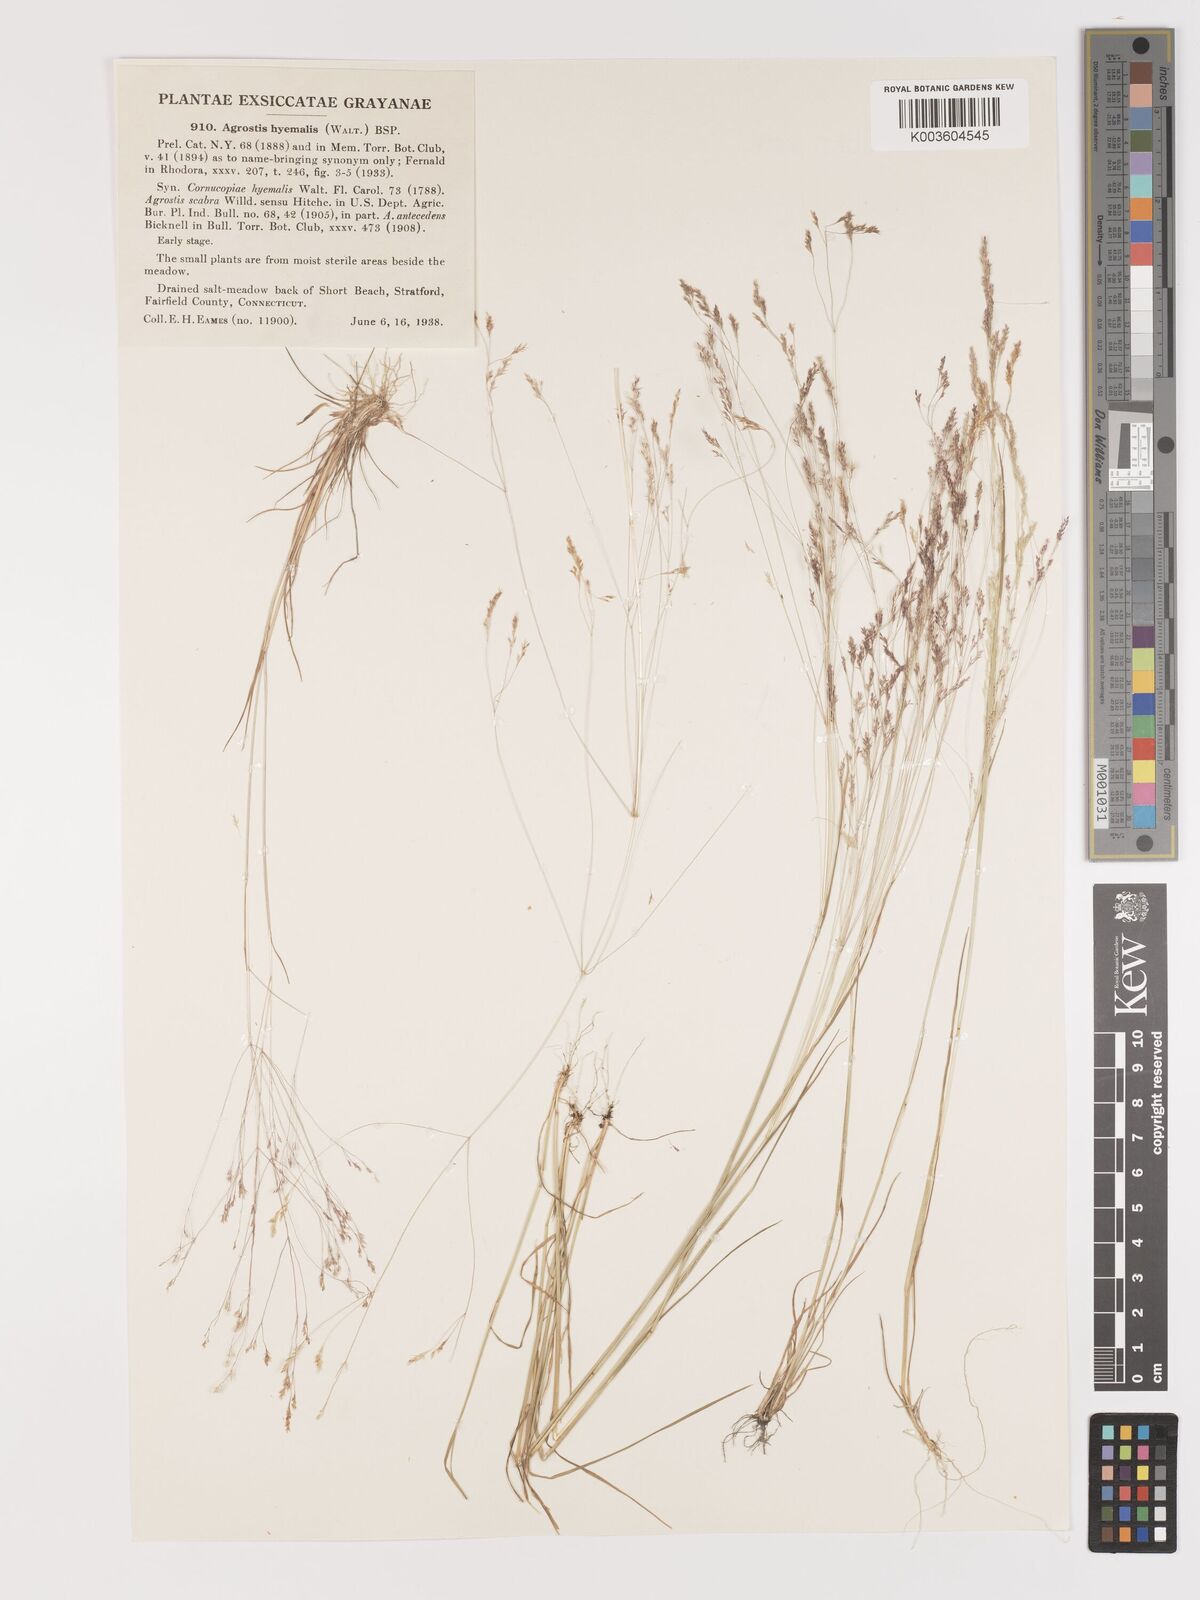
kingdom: Plantae
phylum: Tracheophyta
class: Liliopsida
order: Poales
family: Poaceae
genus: Agrostis
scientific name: Agrostis hyemalis
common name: Small bent
